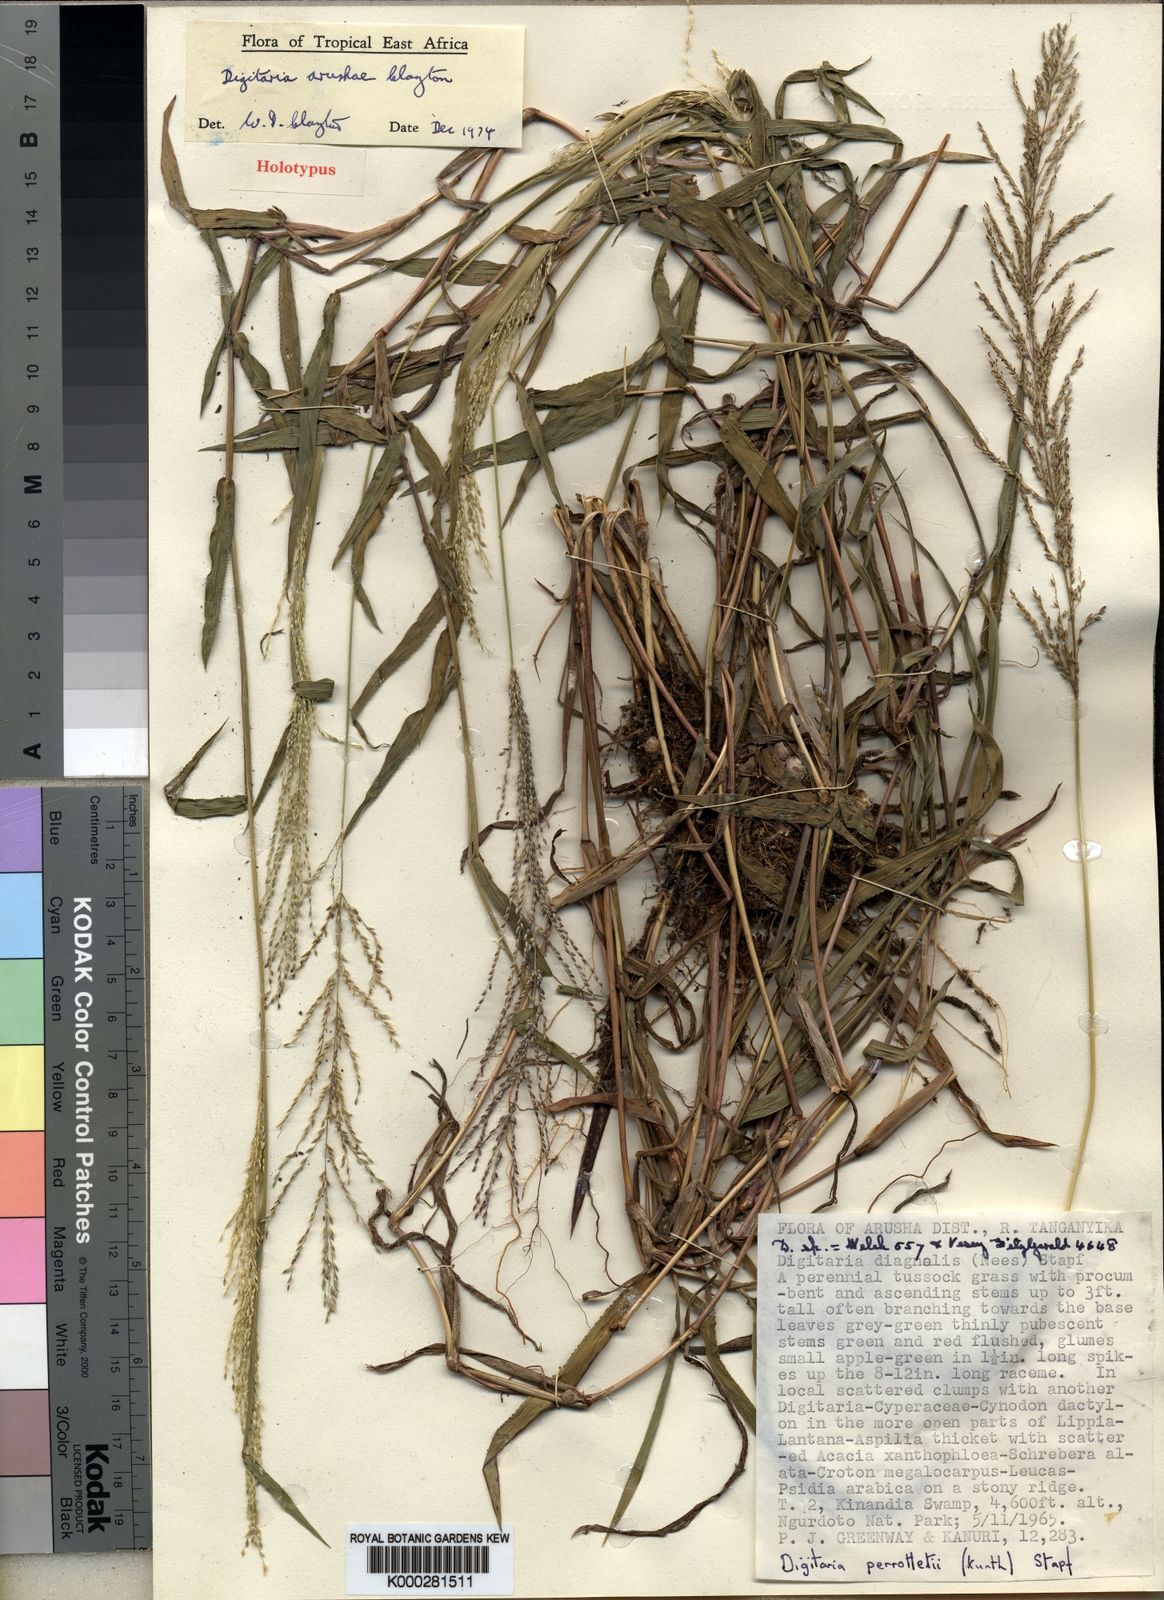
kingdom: Plantae
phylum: Tracheophyta
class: Liliopsida
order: Poales
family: Poaceae
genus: Digitaria
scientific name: Digitaria arushae
